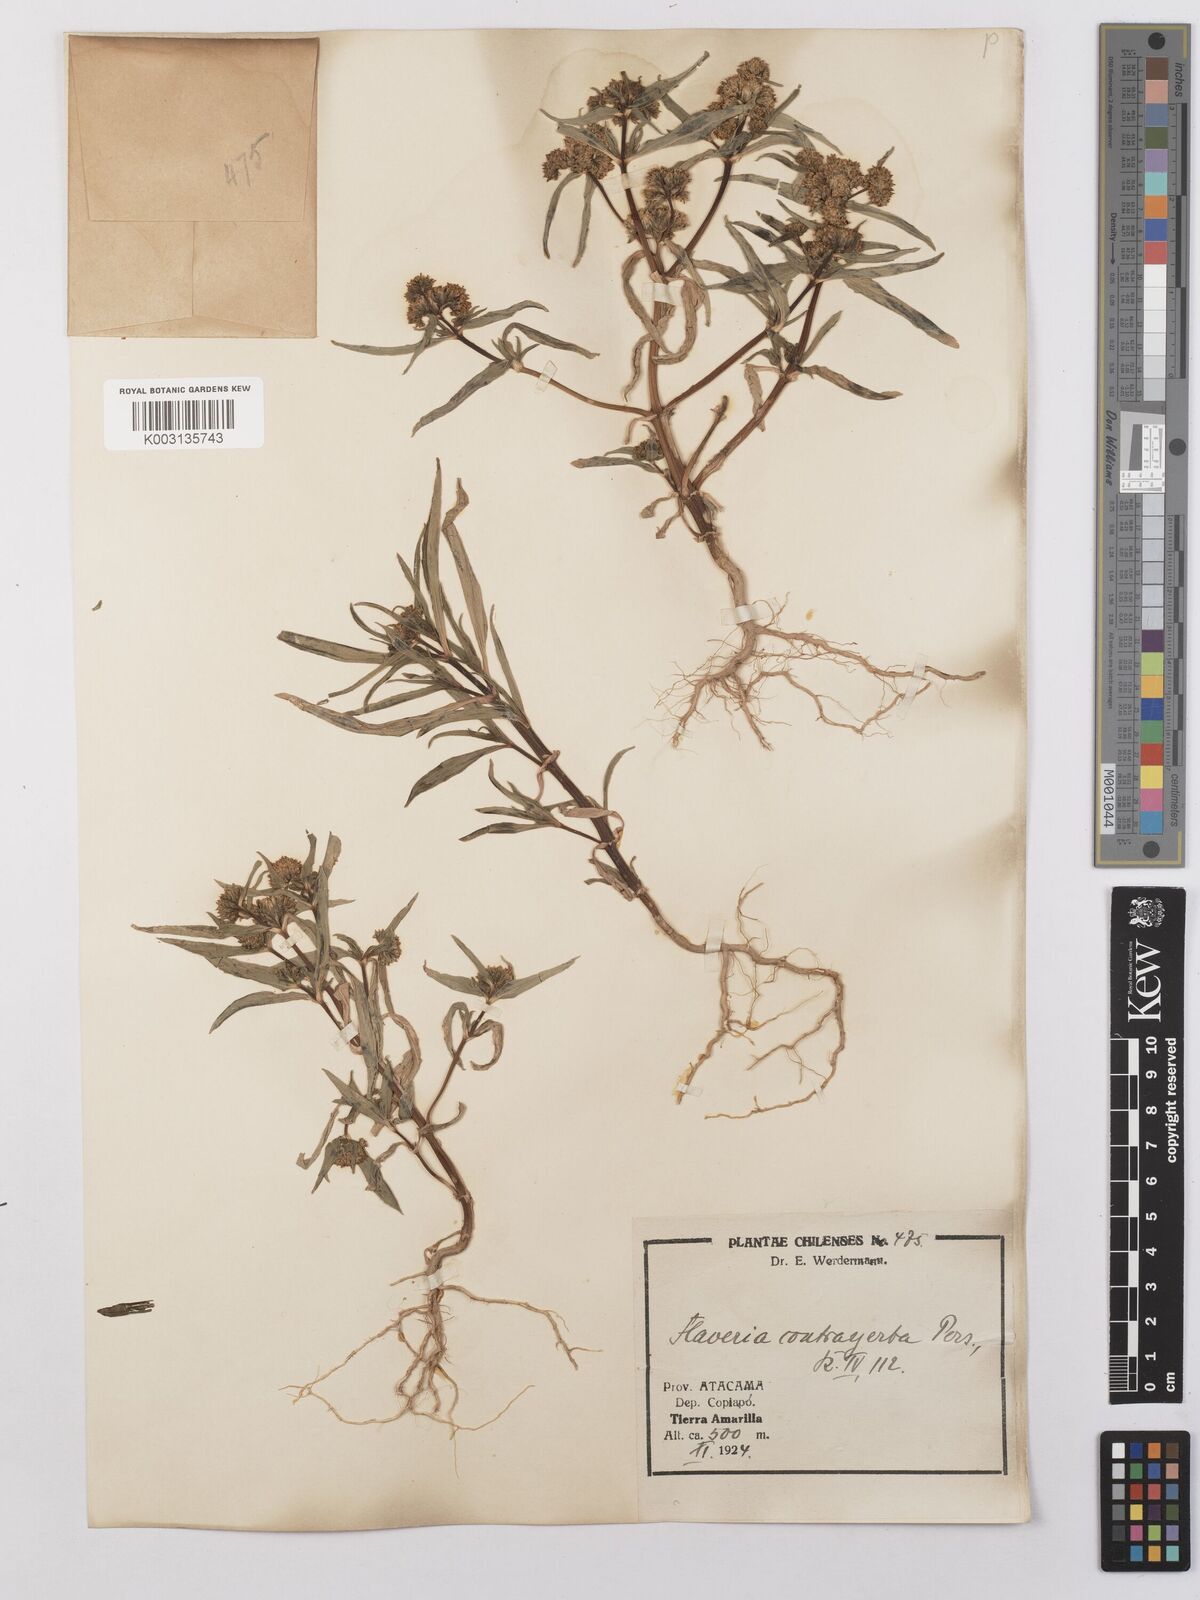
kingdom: Plantae
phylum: Tracheophyta
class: Magnoliopsida
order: Asterales
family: Asteraceae
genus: Flaveria
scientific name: Flaveria bidentis
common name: Coastal plain yellowtops
